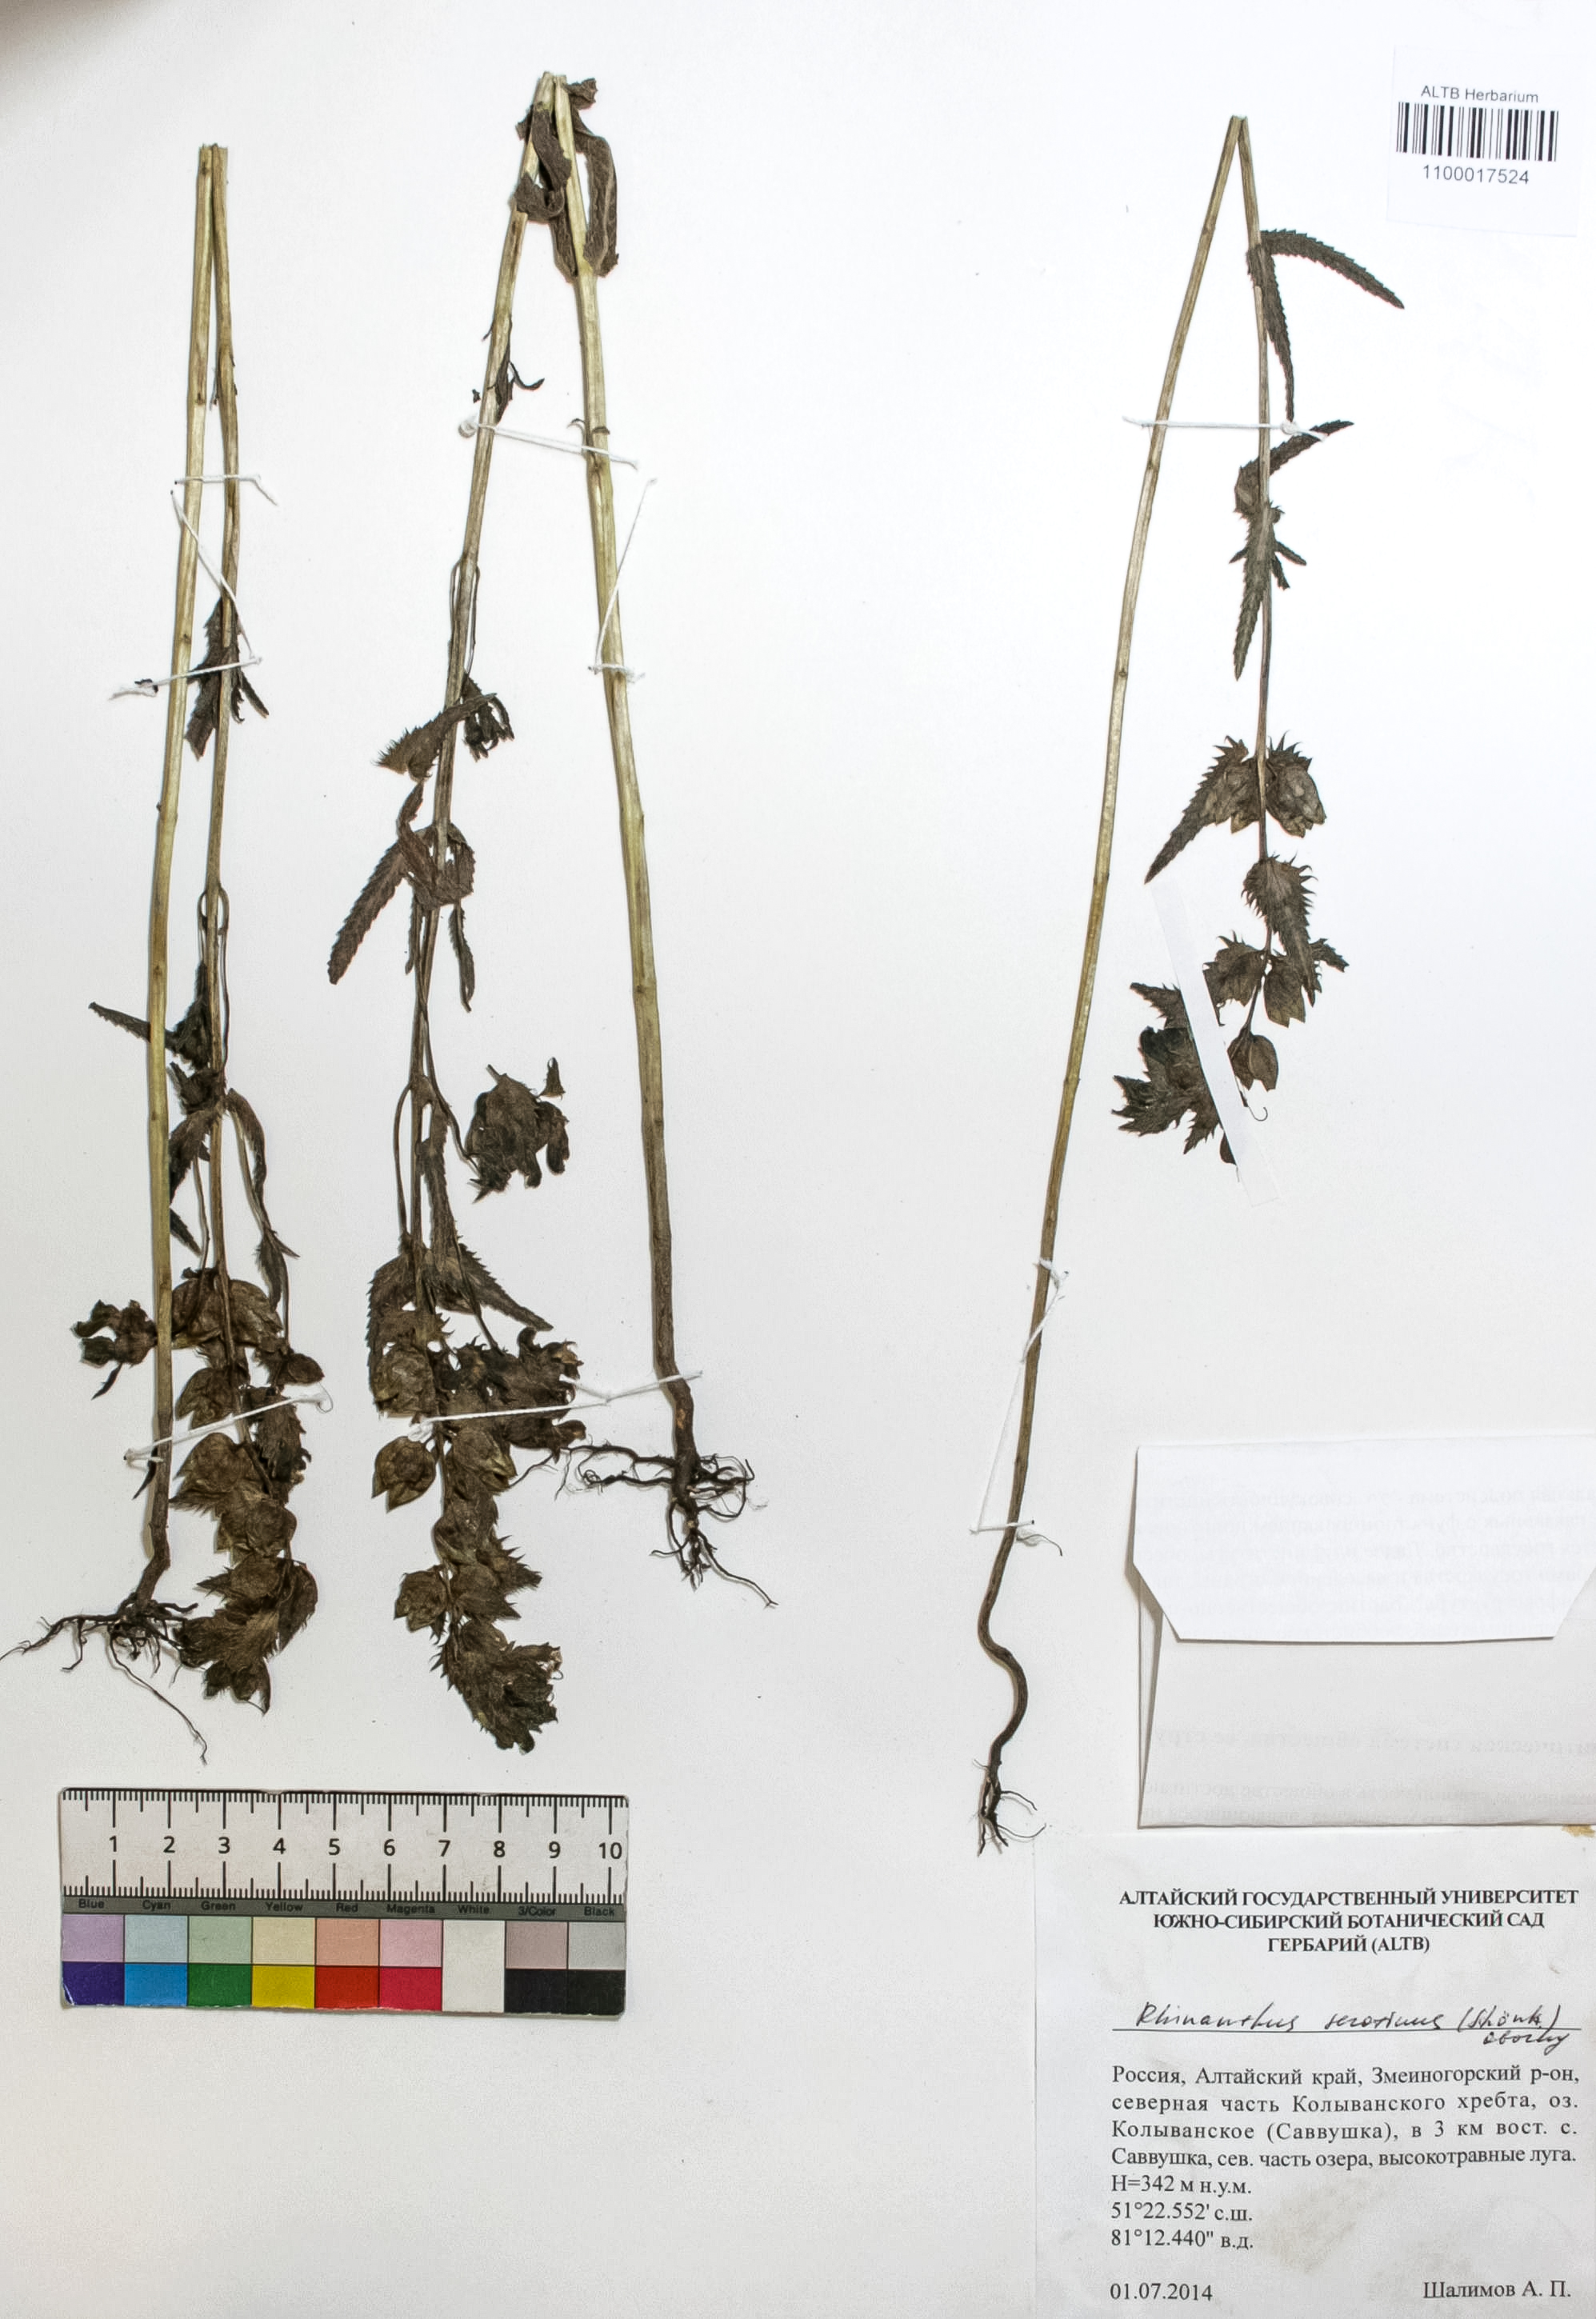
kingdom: Plantae
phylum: Tracheophyta
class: Magnoliopsida
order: Lamiales
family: Orobanchaceae
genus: Rhinanthus
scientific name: Rhinanthus serotinus
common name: Late-flowering yellow rattle
